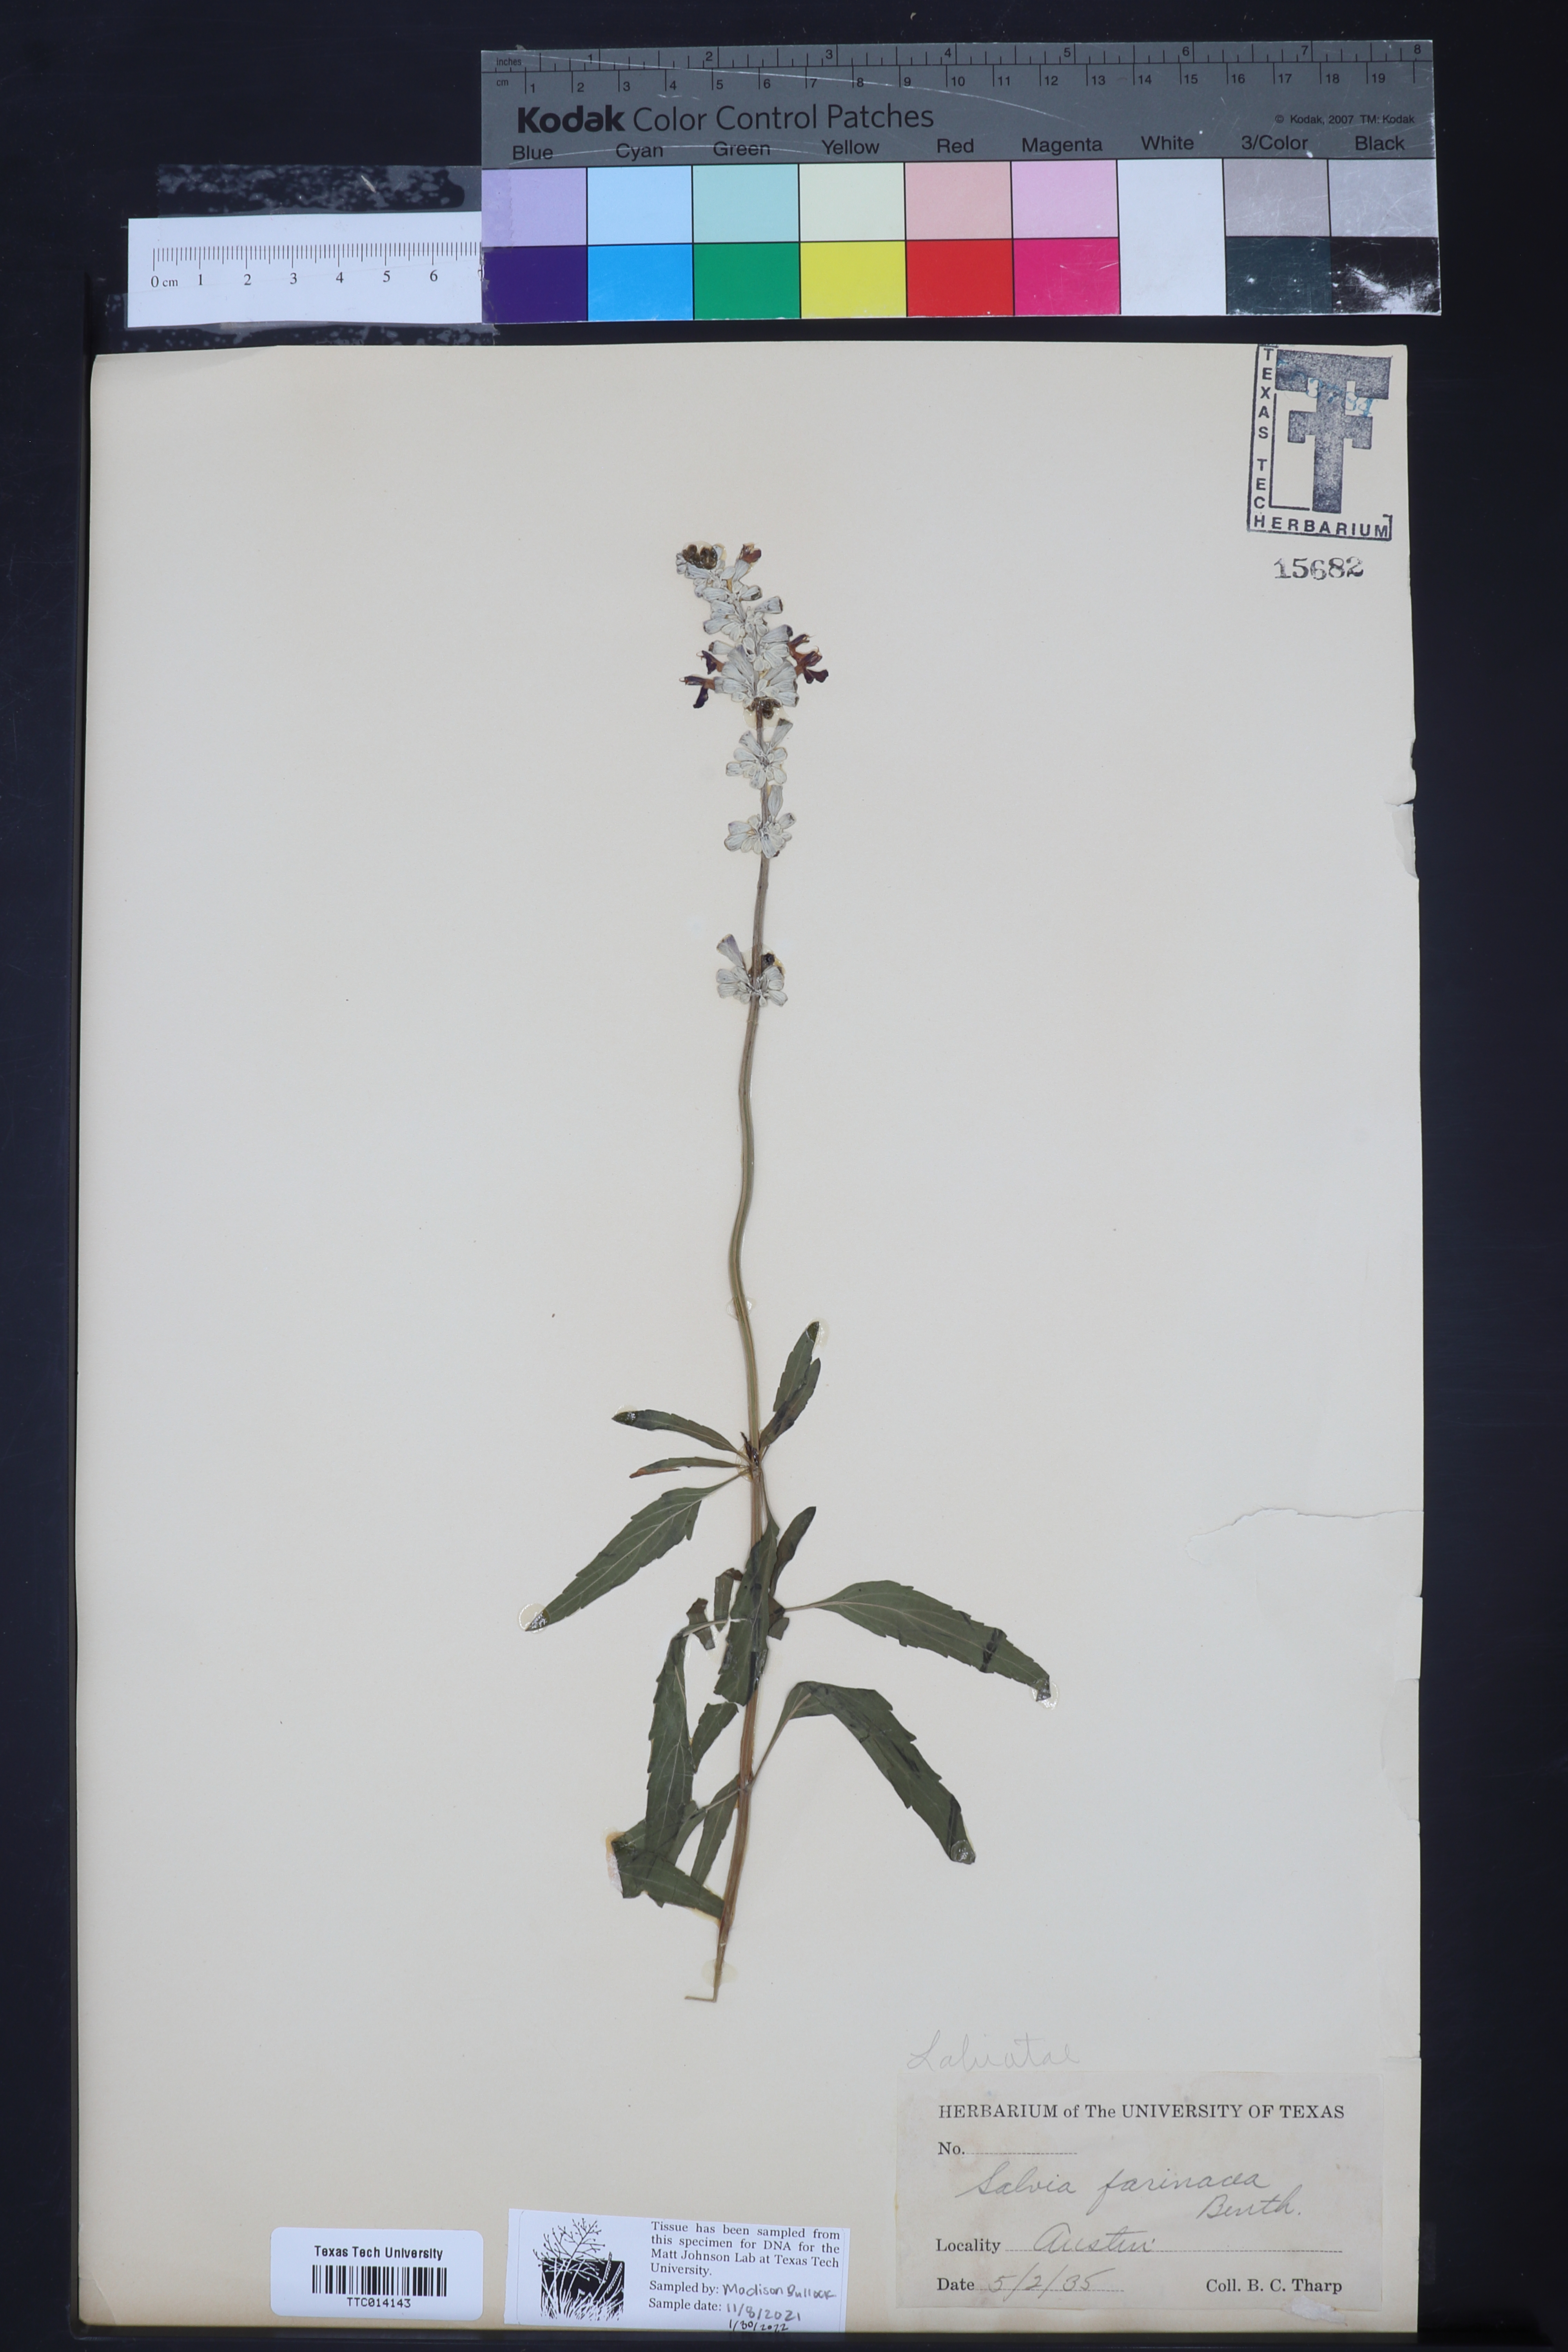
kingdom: Plantae
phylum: Tracheophyta
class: Magnoliopsida
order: Lamiales
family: Lamiaceae
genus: Salvia
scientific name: Salvia farinacea
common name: Mealy sage
